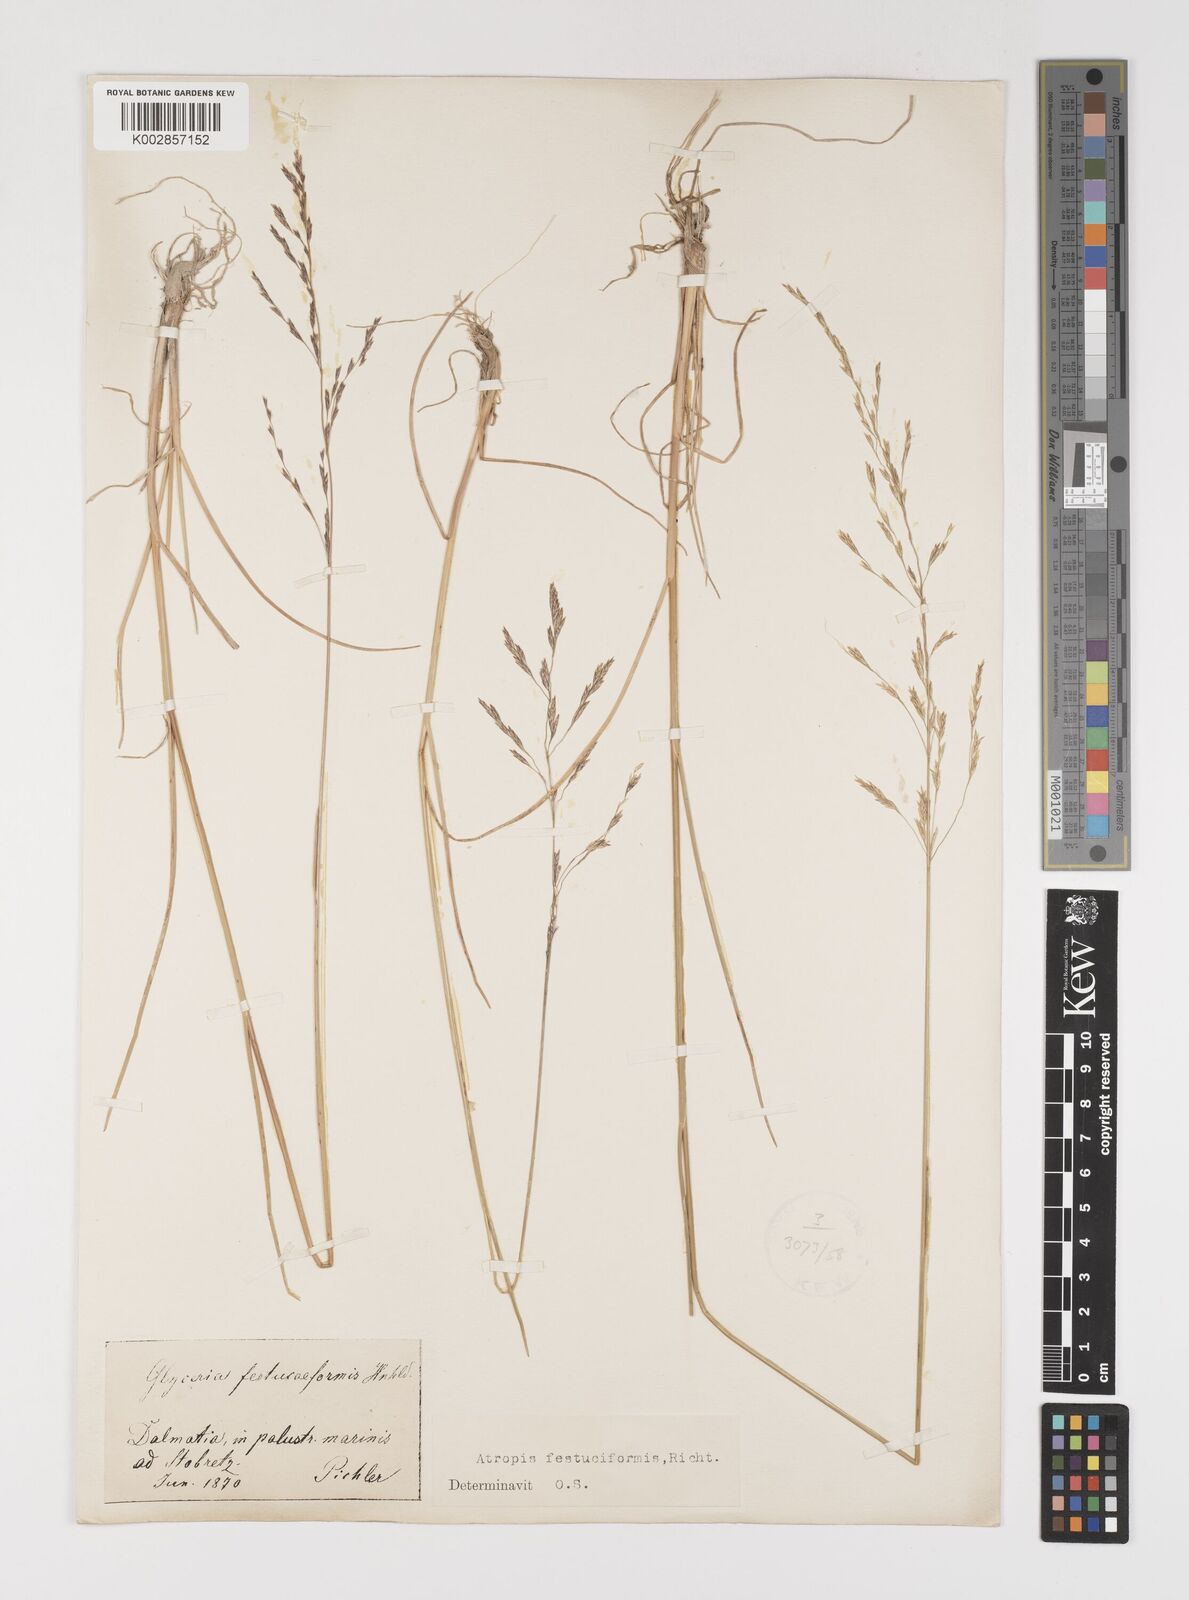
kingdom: Plantae
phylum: Tracheophyta
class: Liliopsida
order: Poales
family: Poaceae
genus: Puccinellia
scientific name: Puccinellia festuciformis
